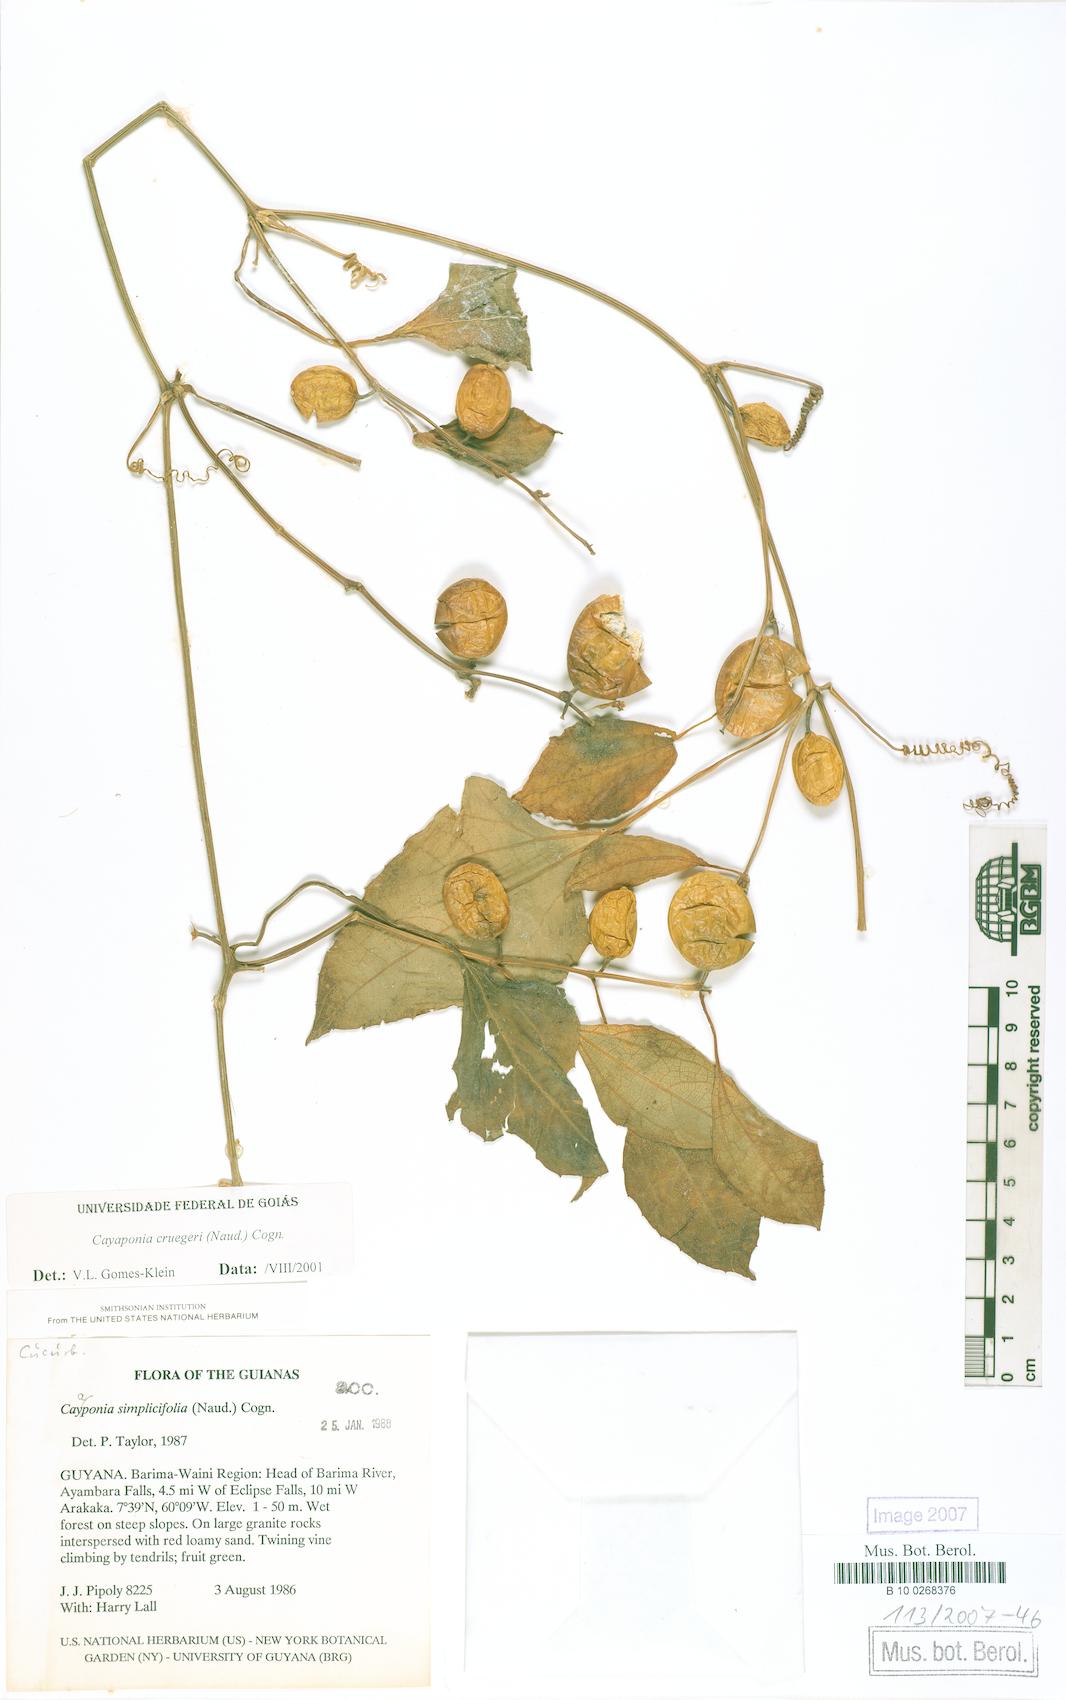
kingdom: Plantae
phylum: Tracheophyta
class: Magnoliopsida
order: Cucurbitales
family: Cucurbitaceae
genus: Cayaponia
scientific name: Cayaponia cruegeri
